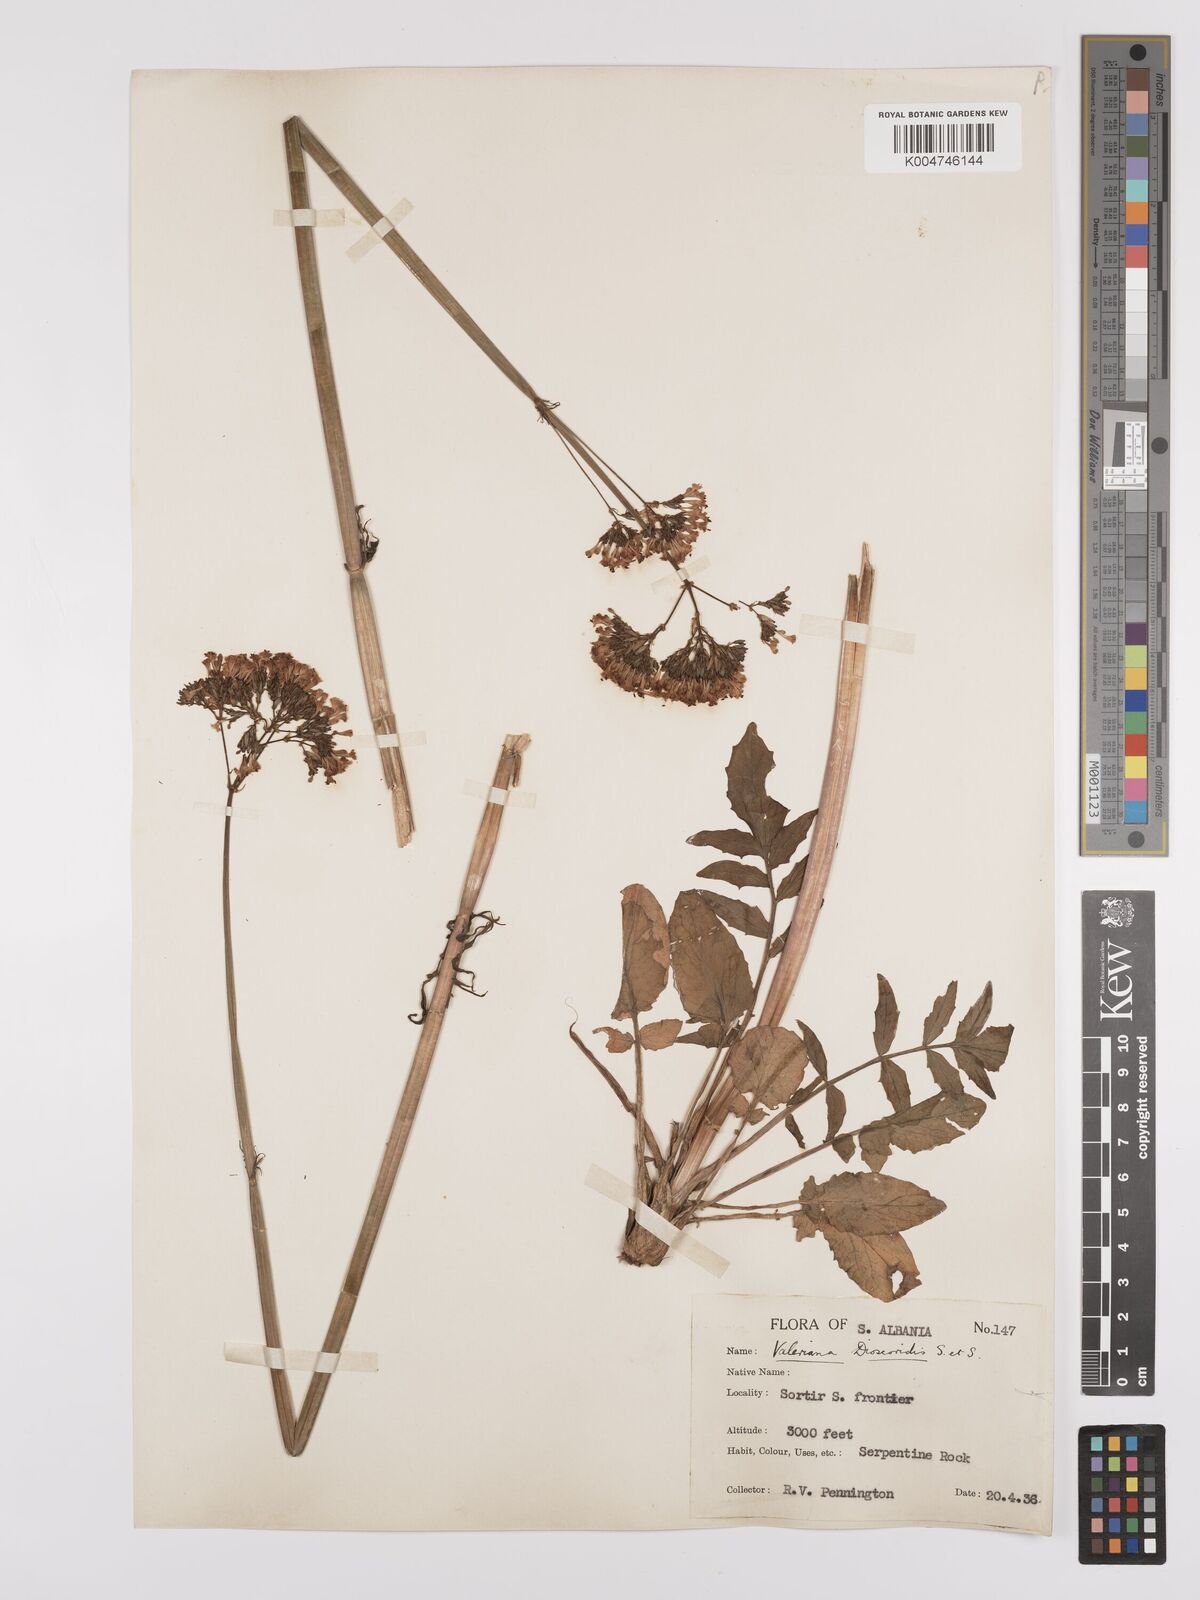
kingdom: Plantae
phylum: Tracheophyta
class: Magnoliopsida
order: Dipsacales
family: Caprifoliaceae
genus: Valeriana
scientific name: Valeriana dioscoridis
